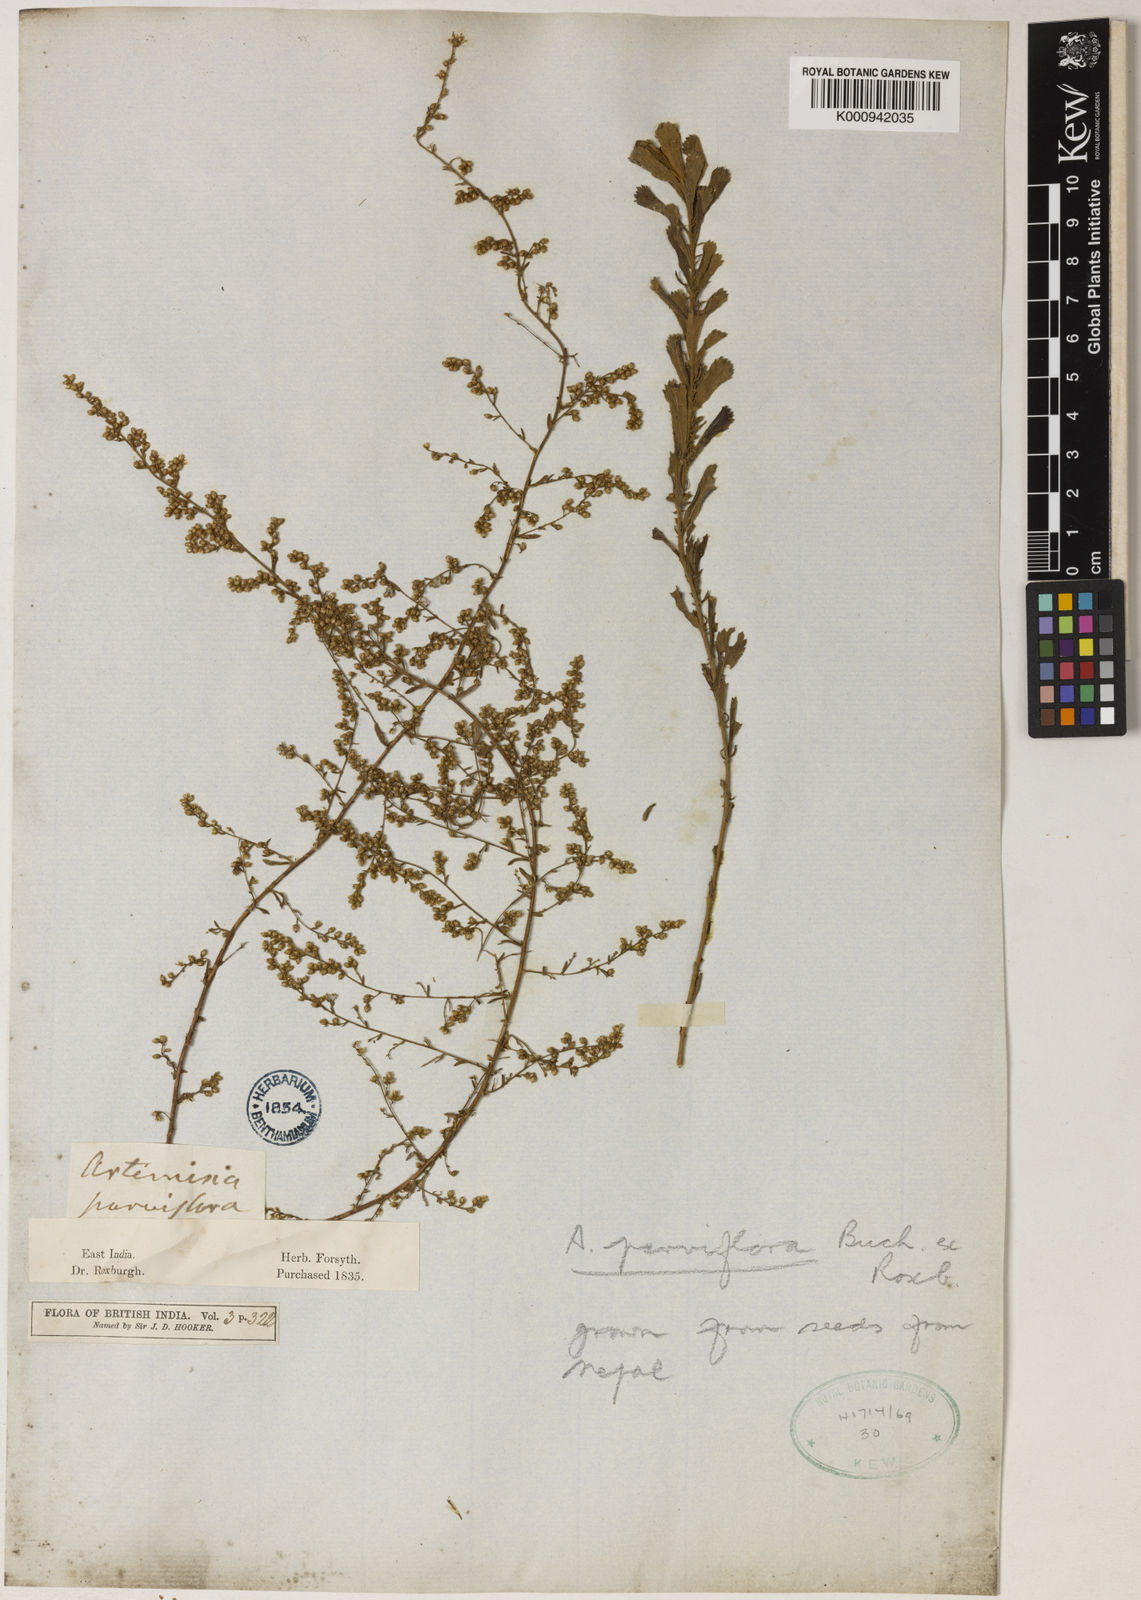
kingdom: Plantae
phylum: Tracheophyta
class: Magnoliopsida
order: Asterales
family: Asteraceae
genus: Artemisia
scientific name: Artemisia parviflora
